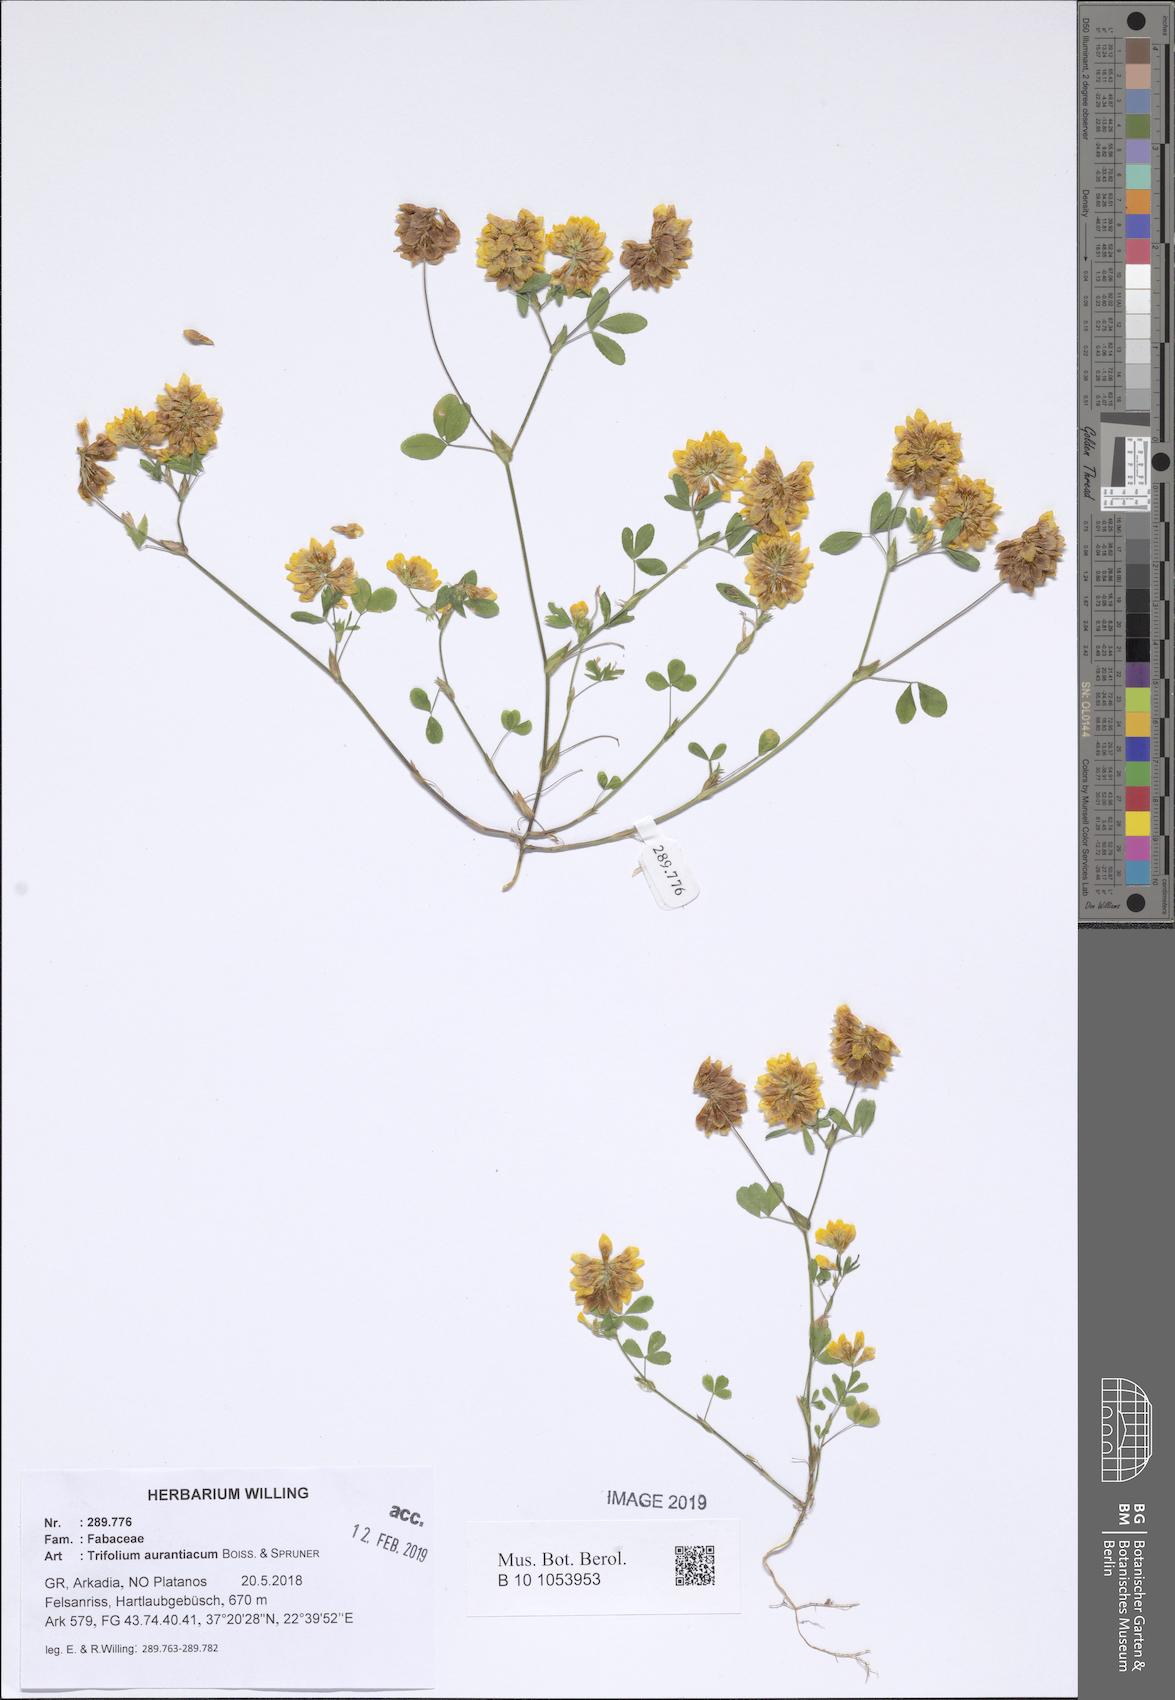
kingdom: Plantae
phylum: Tracheophyta
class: Magnoliopsida
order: Fabales
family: Fabaceae
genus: Trifolium
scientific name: Trifolium aurantiacum
